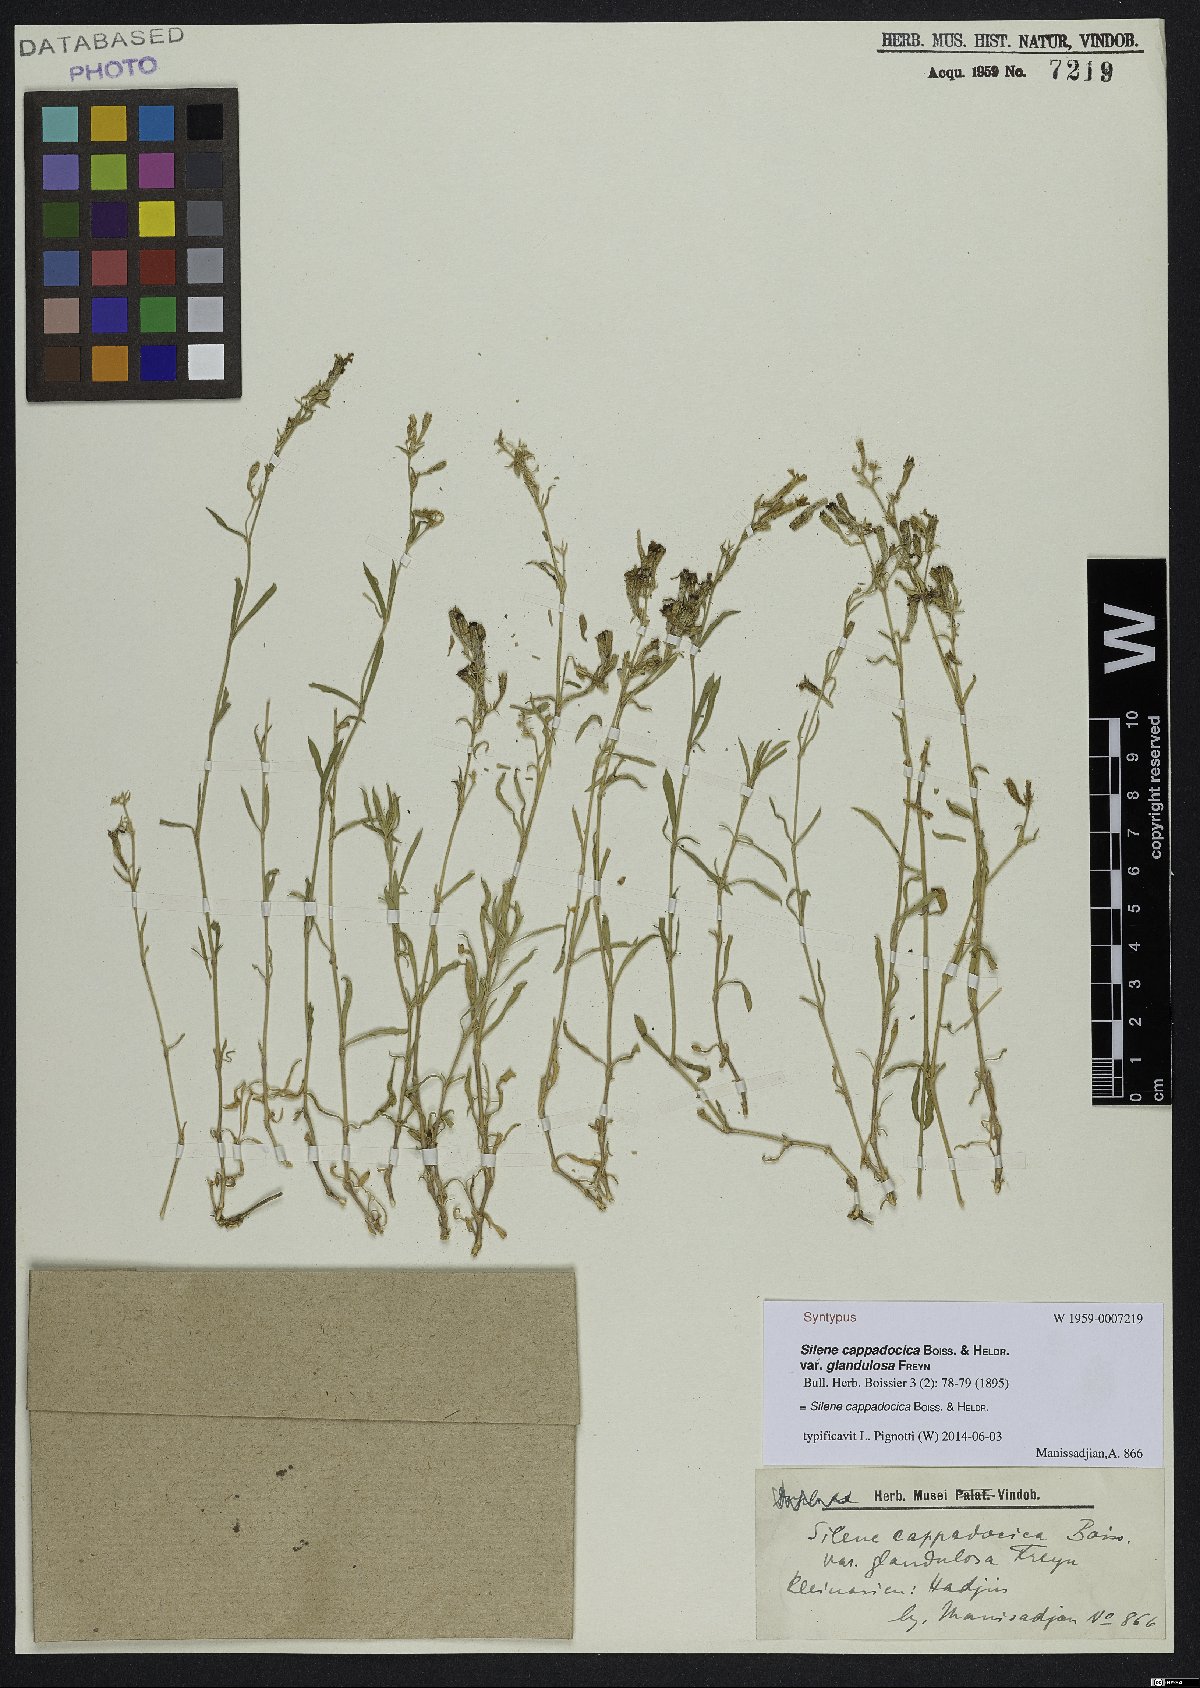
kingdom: Plantae
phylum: Tracheophyta
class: Magnoliopsida
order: Caryophyllales
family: Caryophyllaceae
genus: Silene
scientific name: Silene cappadocica
